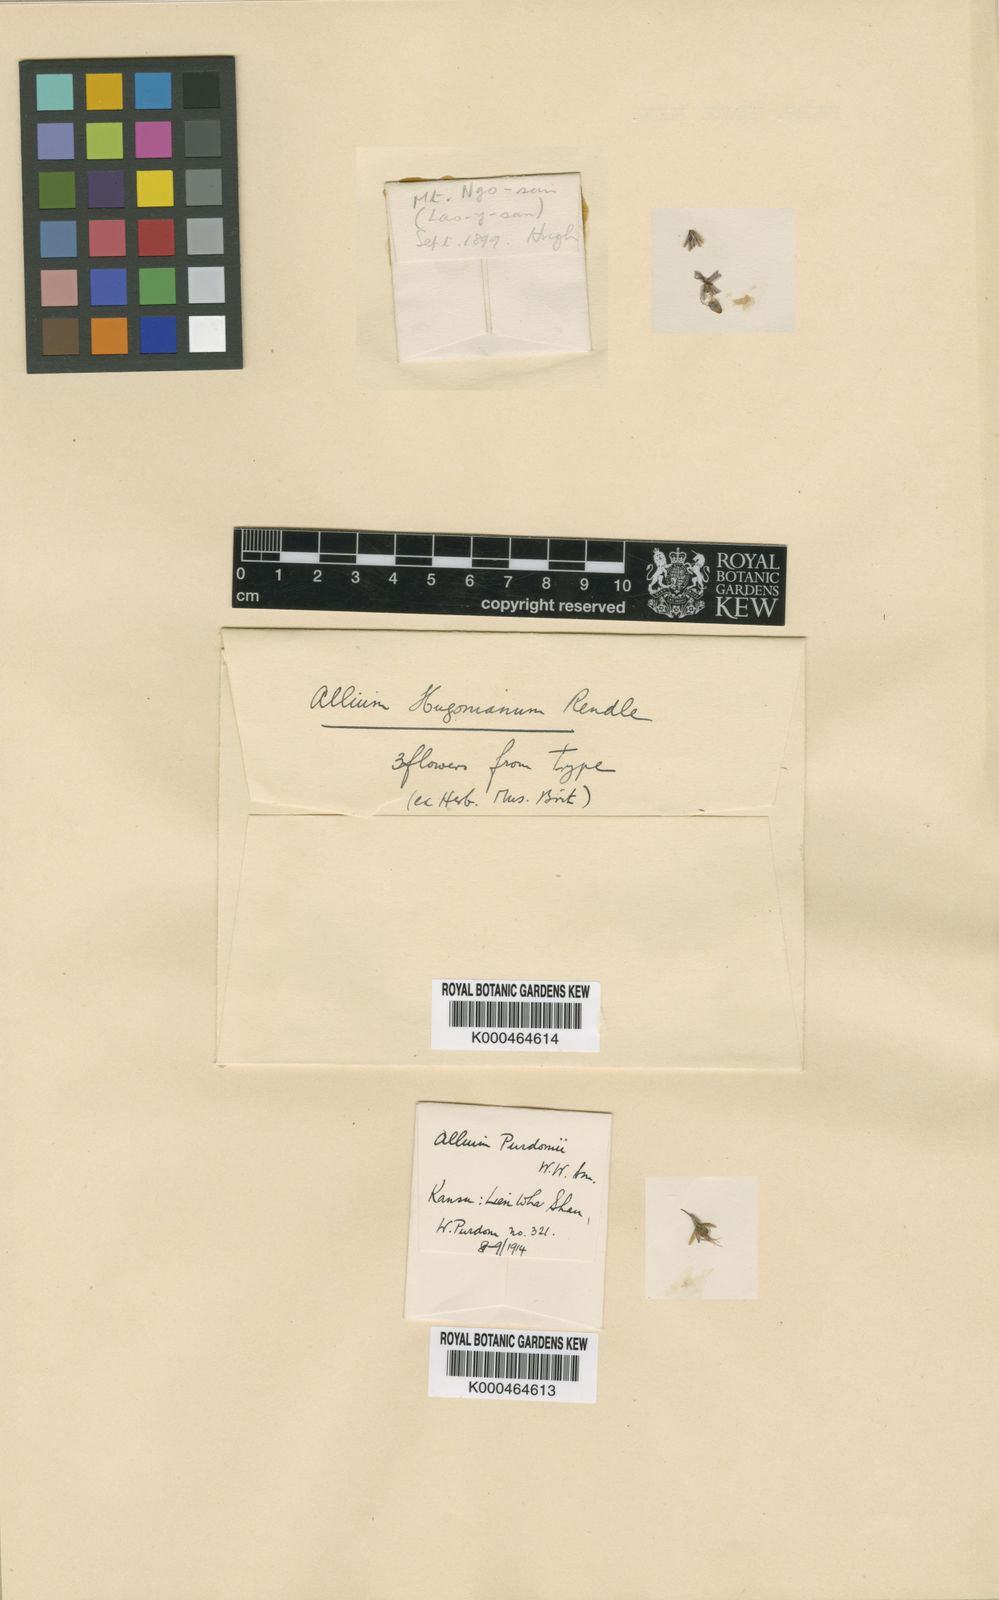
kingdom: Plantae
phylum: Tracheophyta
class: Liliopsida
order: Asparagales
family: Amaryllidaceae
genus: Allium
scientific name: Allium cyaneum
